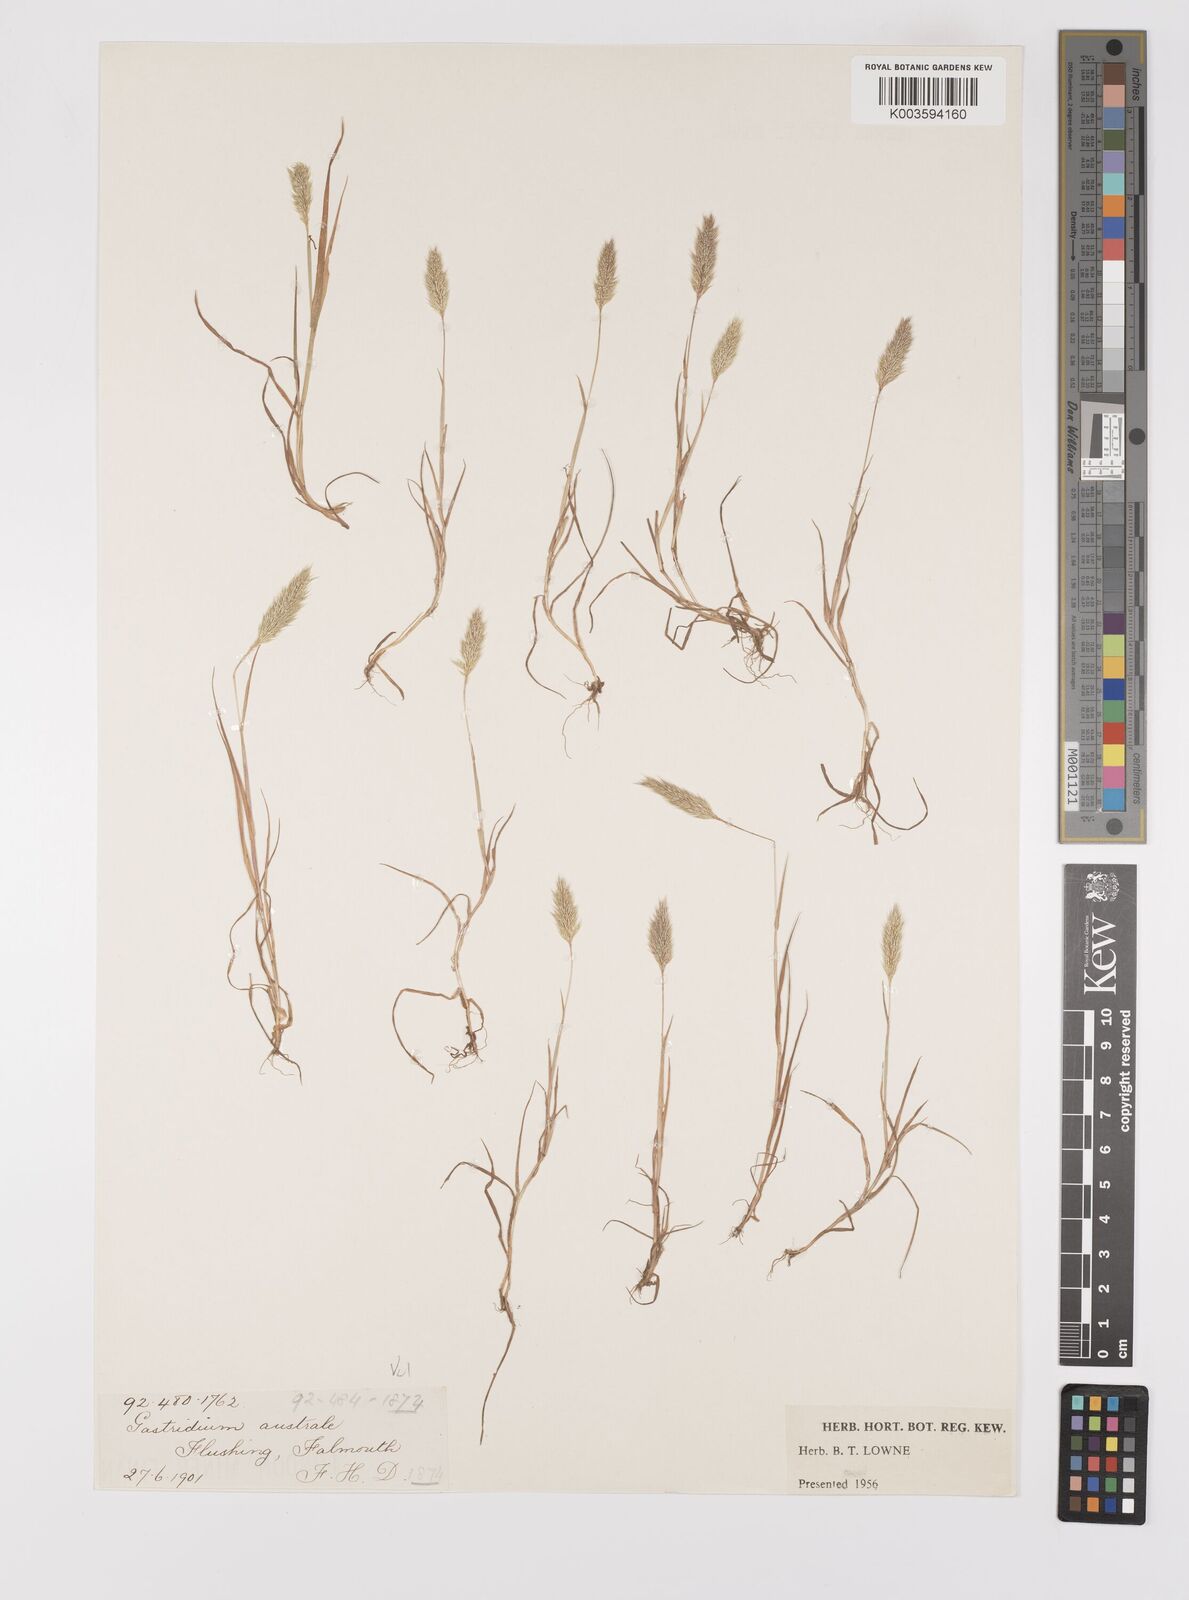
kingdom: Plantae
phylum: Tracheophyta
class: Liliopsida
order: Poales
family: Poaceae
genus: Gastridium
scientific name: Gastridium ventricosum
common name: Nit-grass
